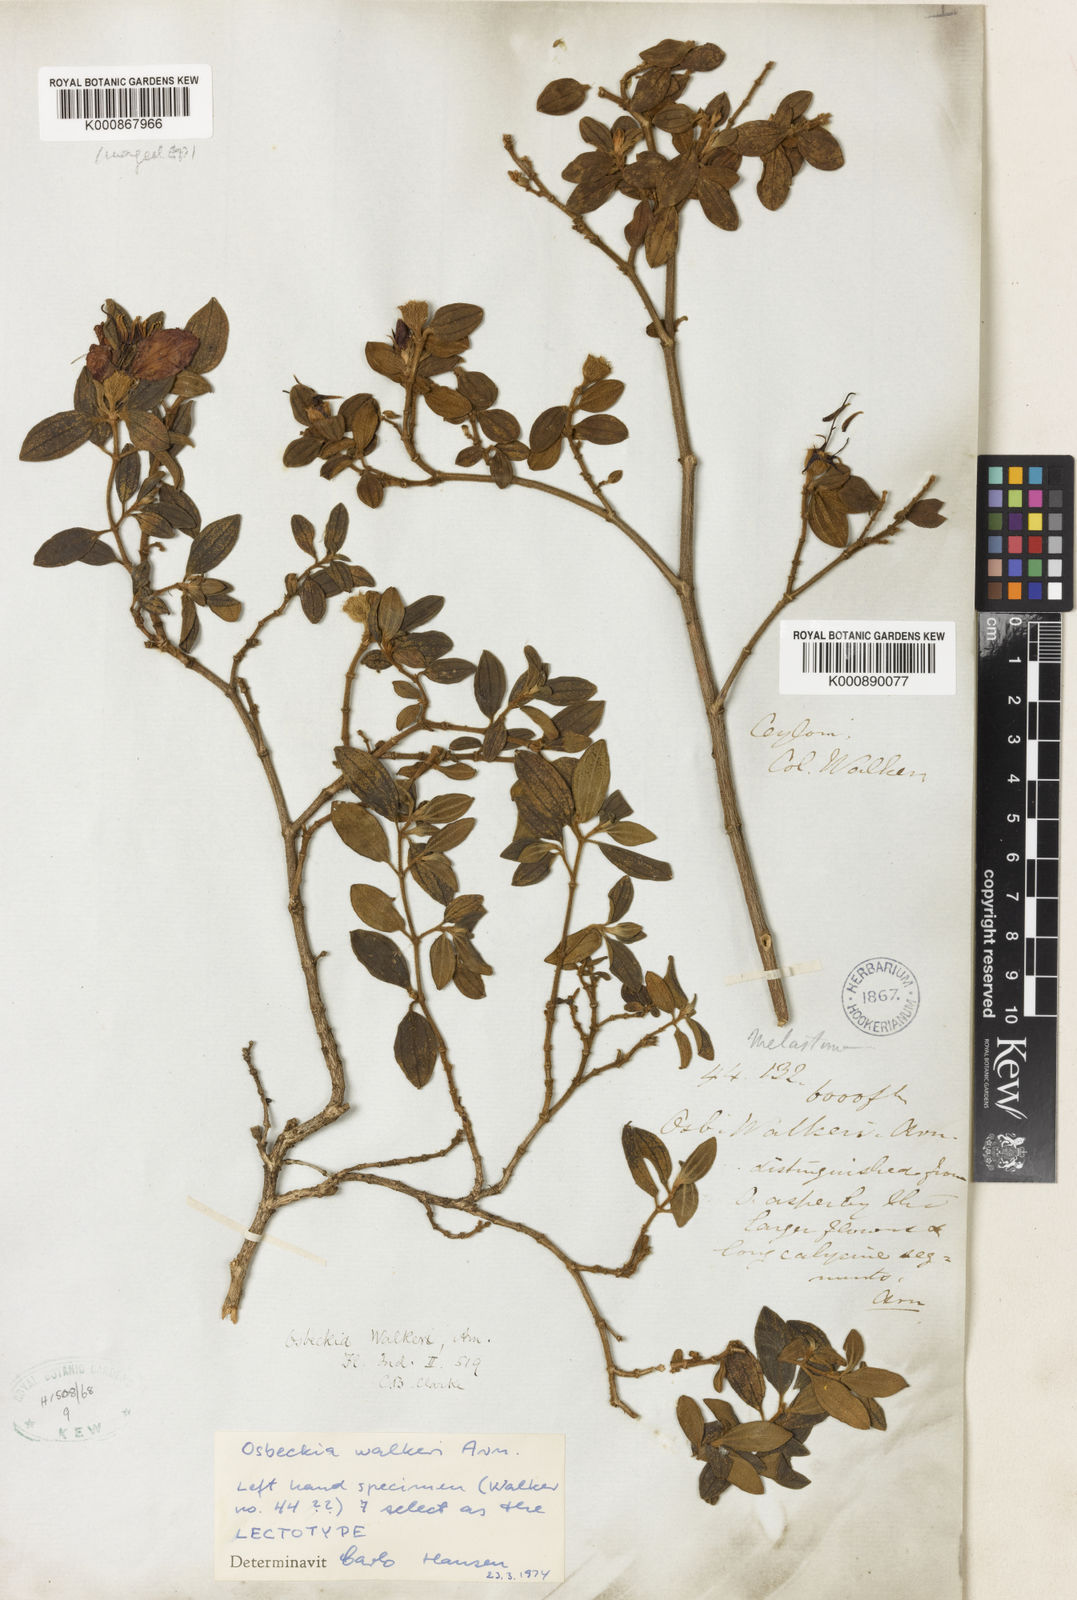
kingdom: Plantae
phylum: Tracheophyta
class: Magnoliopsida
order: Myrtales
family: Melastomataceae
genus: Osbeckia
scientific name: Osbeckia walkeri
